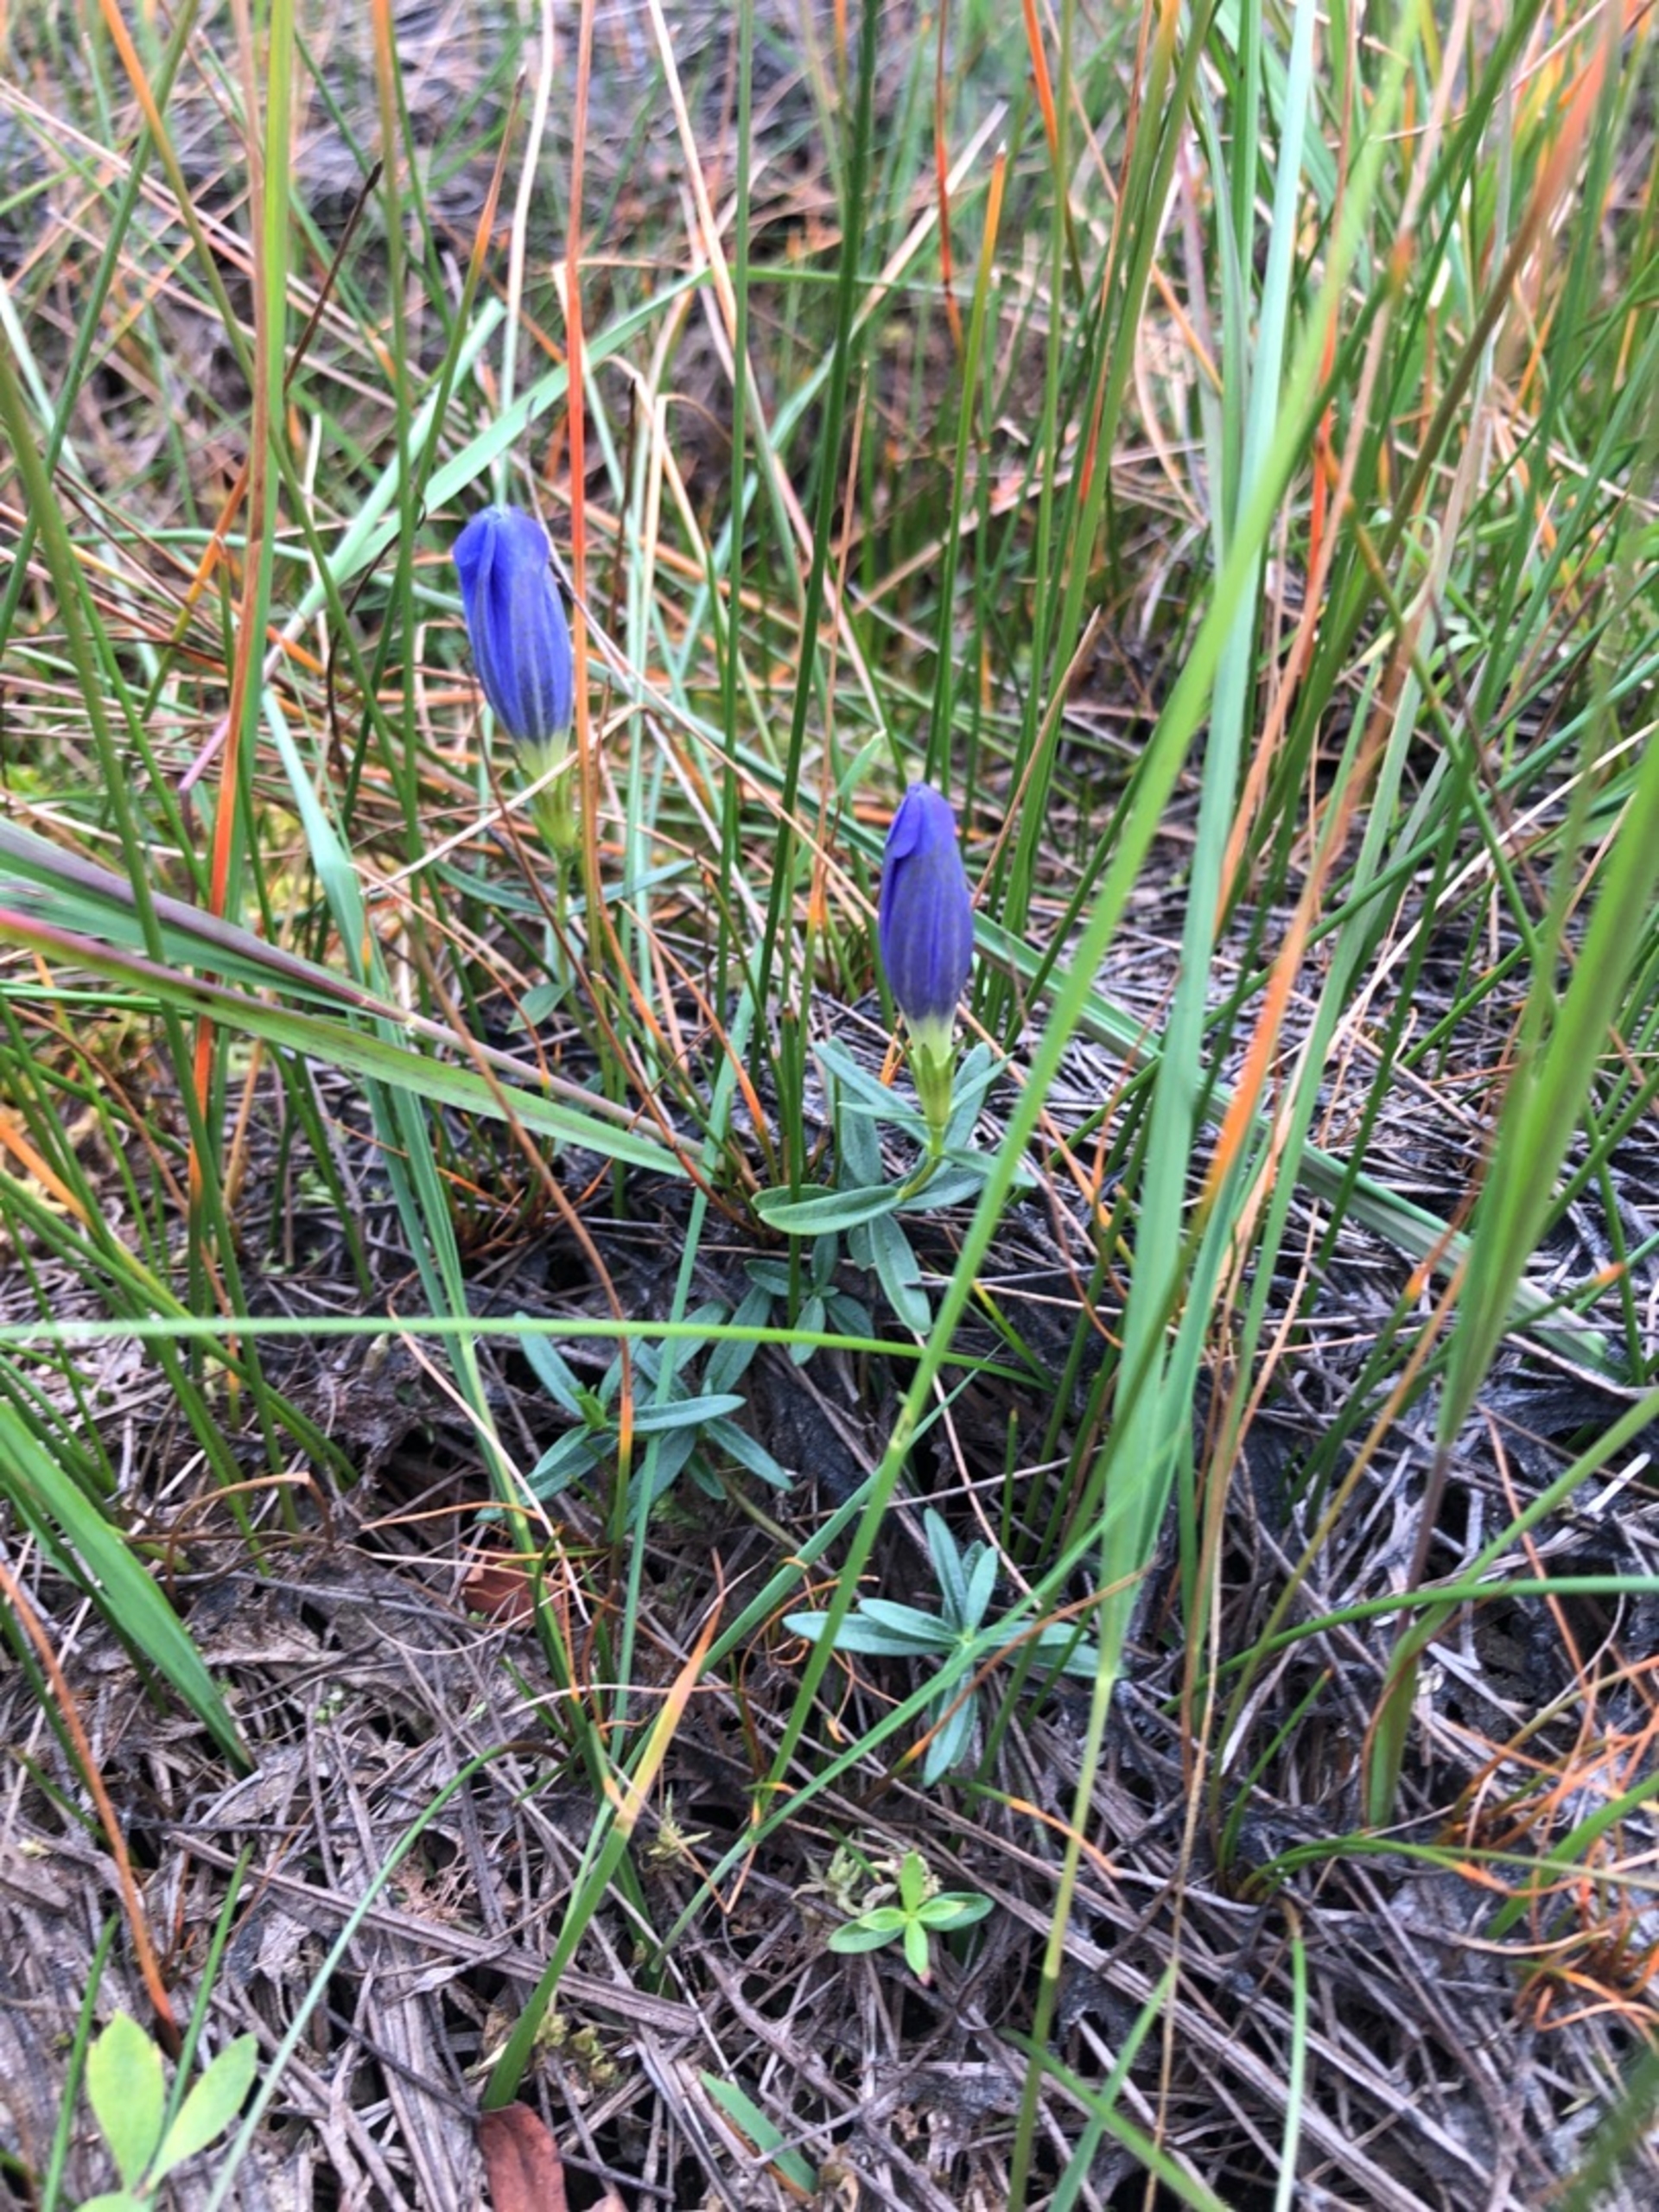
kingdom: Plantae
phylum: Tracheophyta
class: Magnoliopsida
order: Gentianales
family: Gentianaceae
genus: Gentiana
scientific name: Gentiana pneumonanthe
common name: Klokke-ensian
